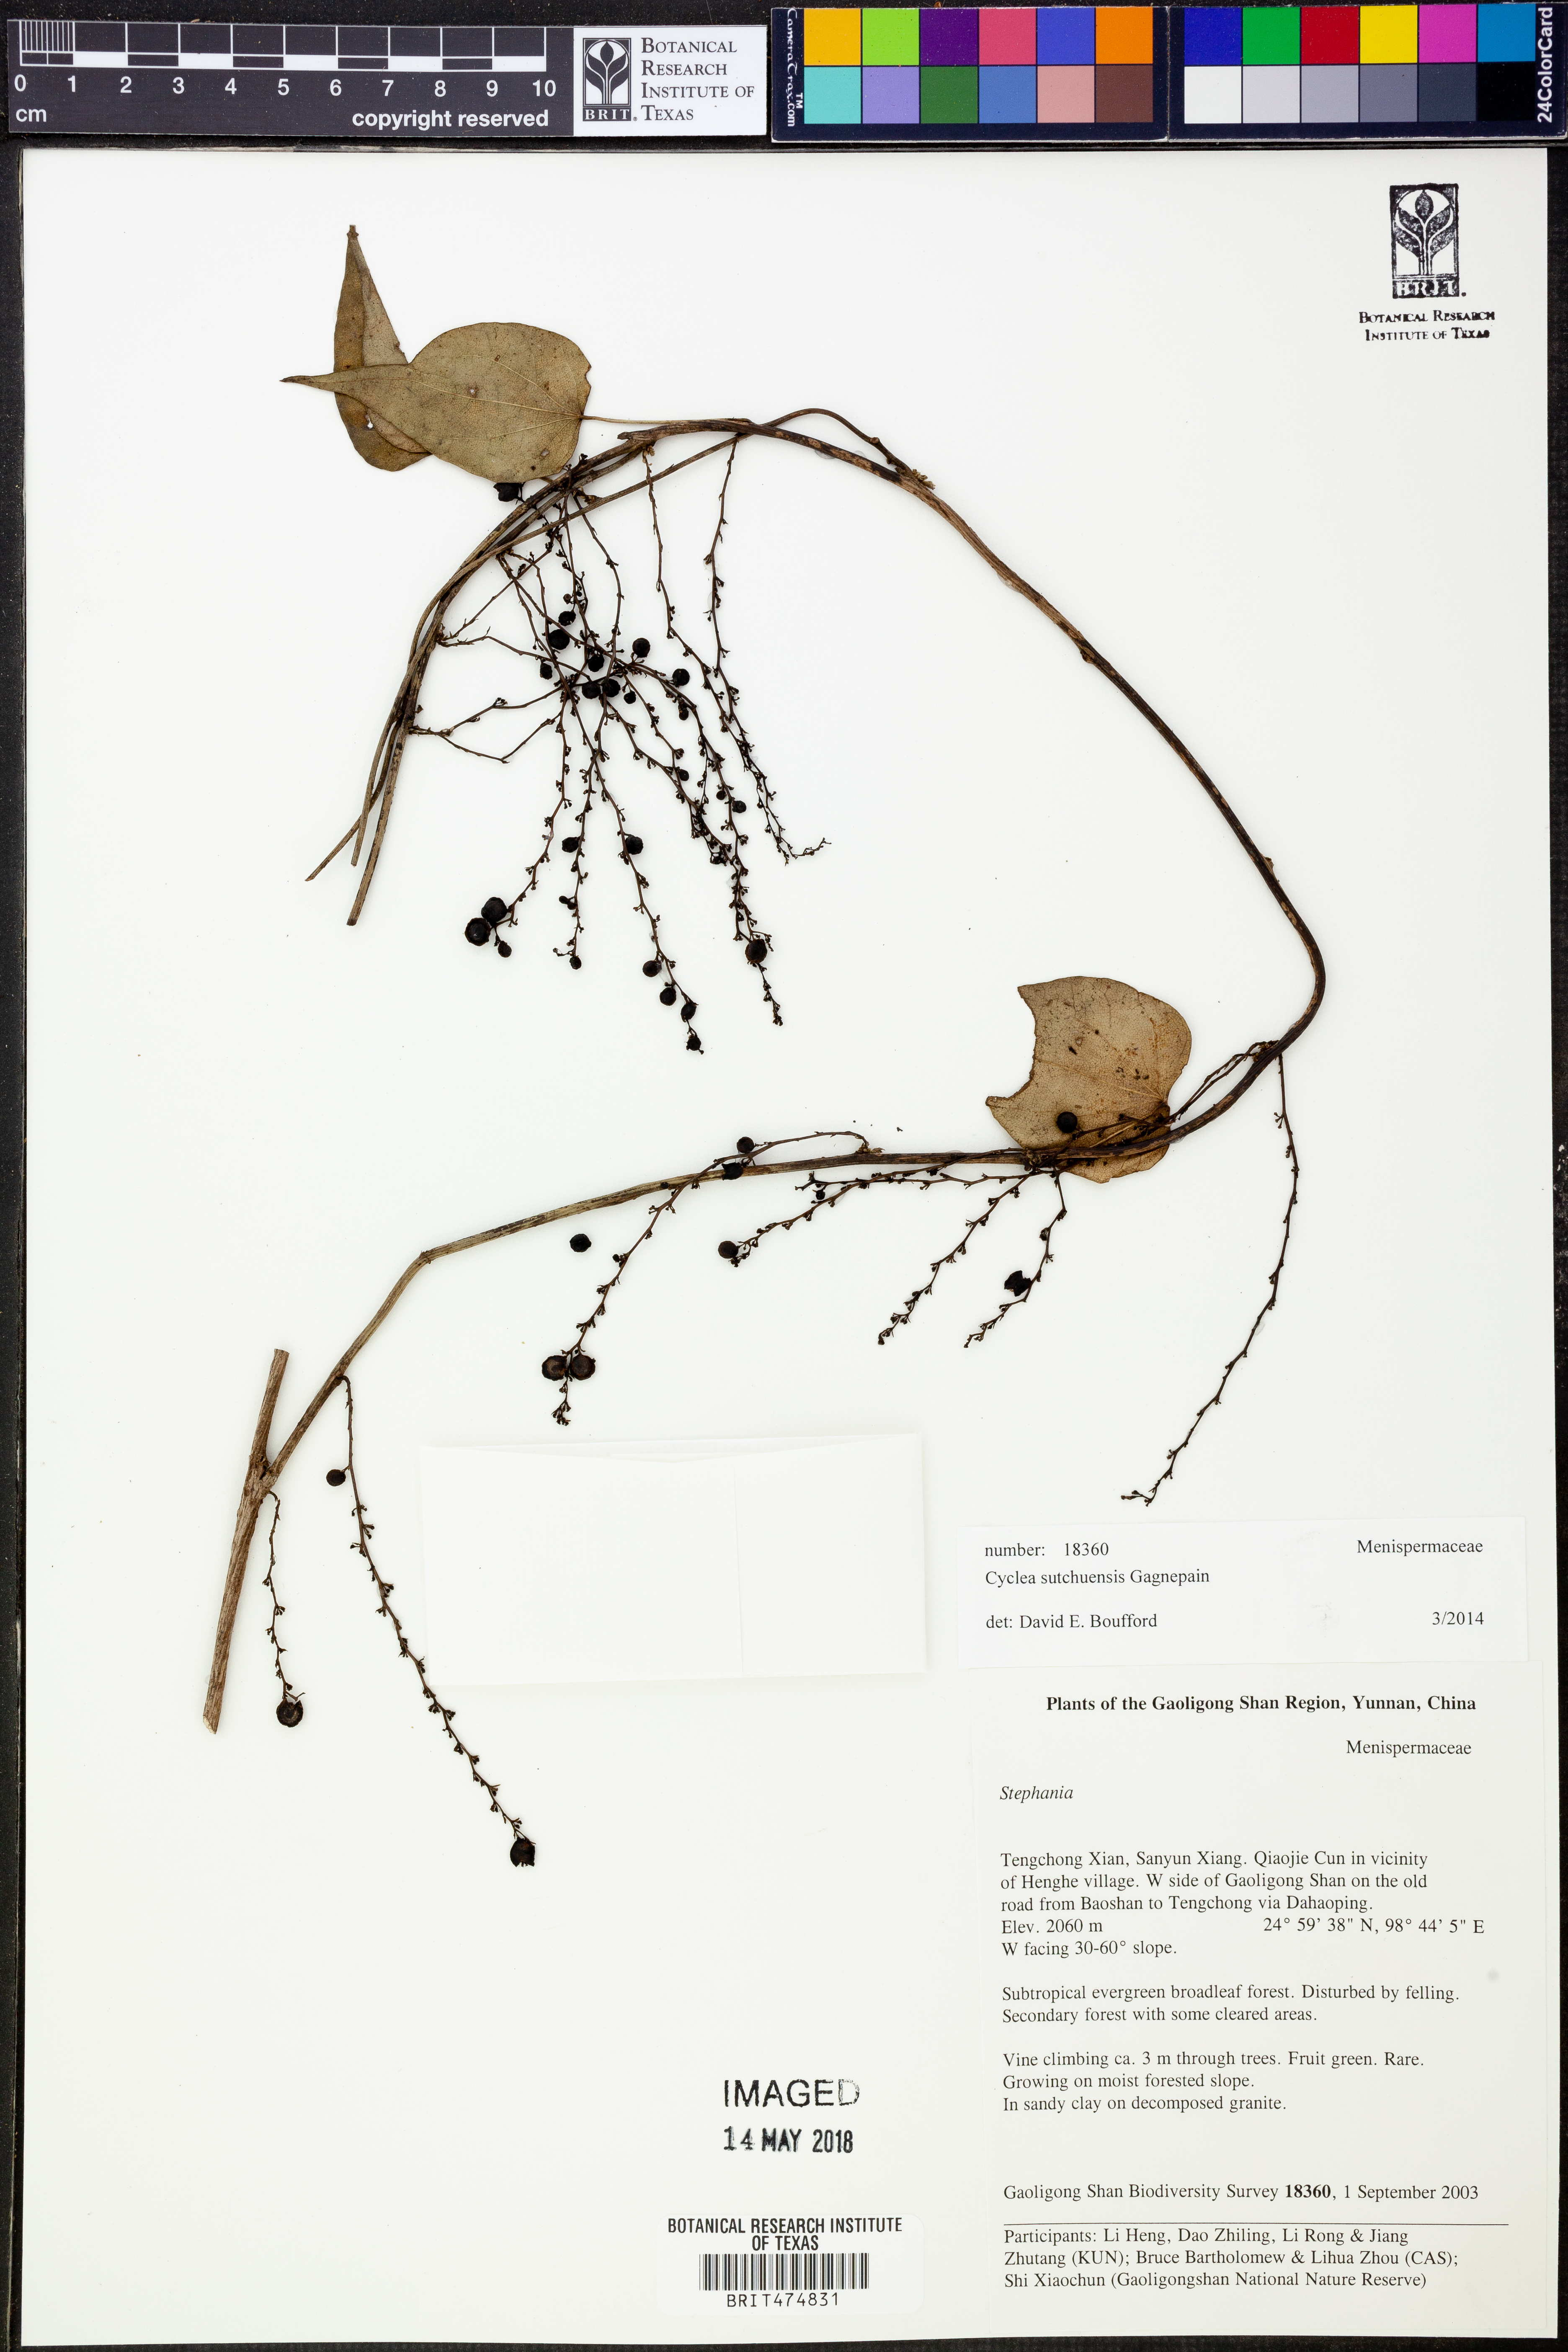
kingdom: Plantae
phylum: Tracheophyta
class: Magnoliopsida
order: Ranunculales
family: Menispermaceae
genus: Cyclea
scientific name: Cyclea sutchuenensis
